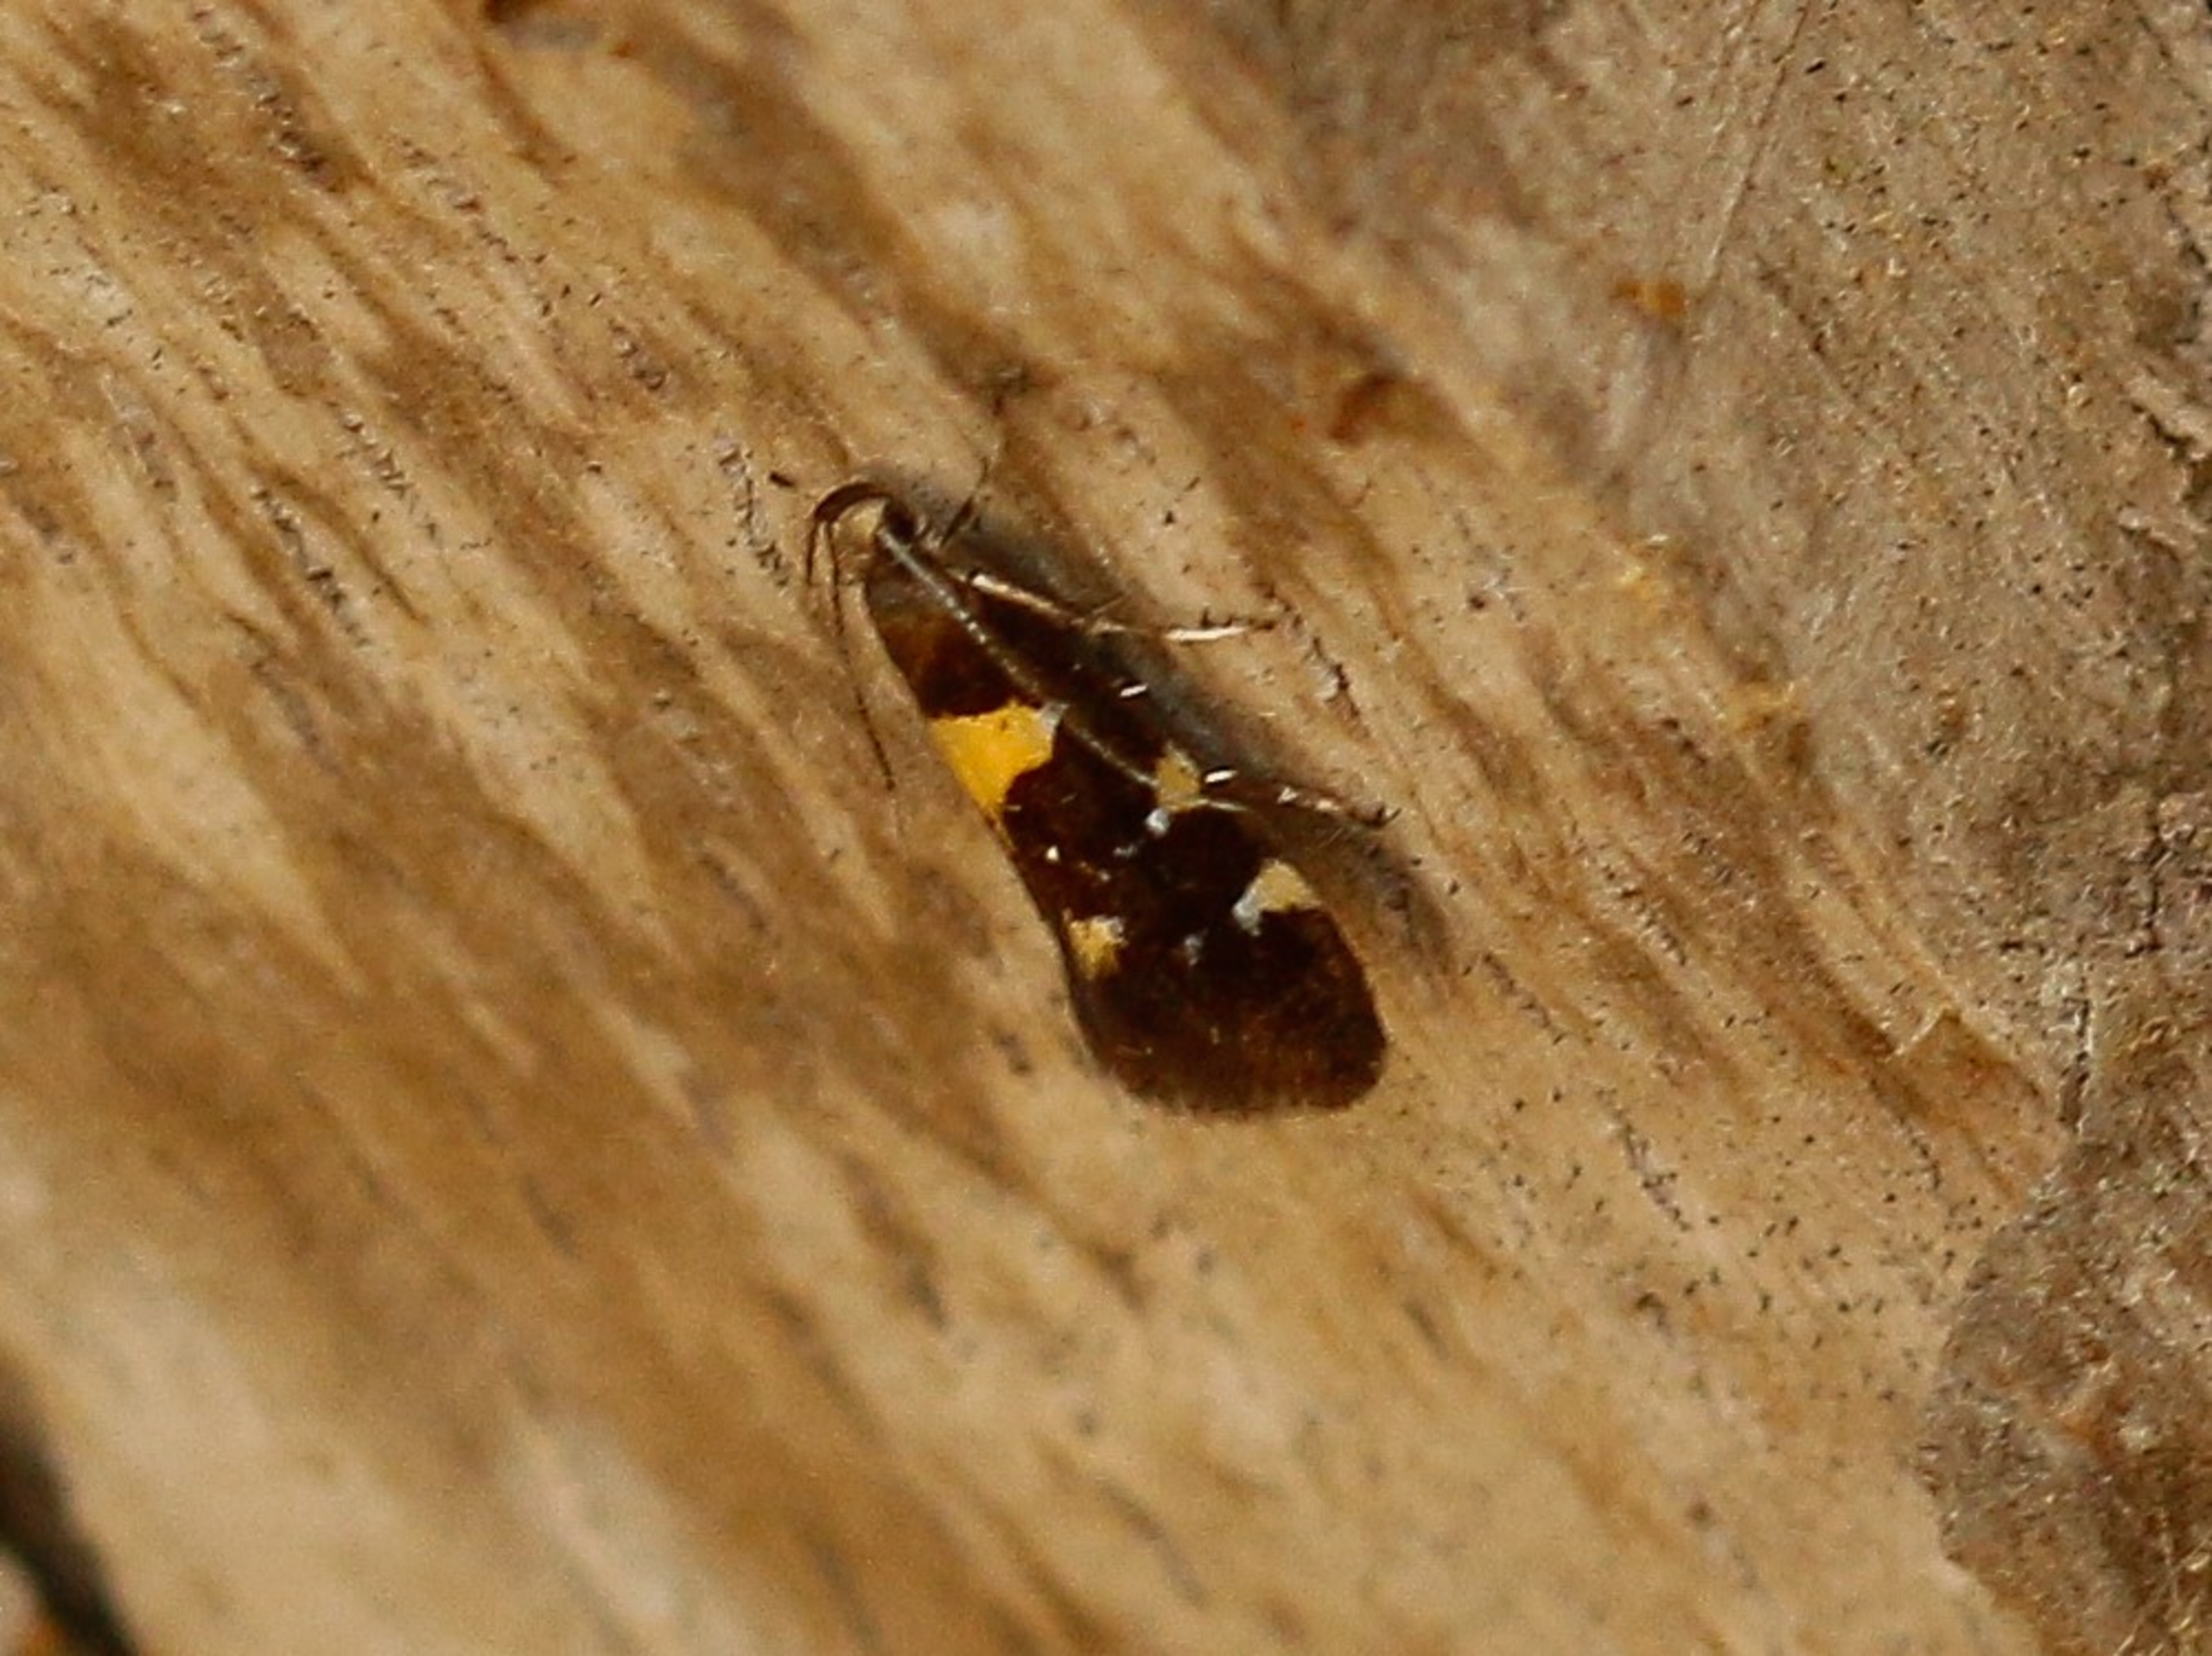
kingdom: Animalia
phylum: Arthropoda
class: Insecta
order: Lepidoptera
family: Oecophoridae
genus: Denisia
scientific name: Denisia stroemella
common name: Urskovsprydvinge
